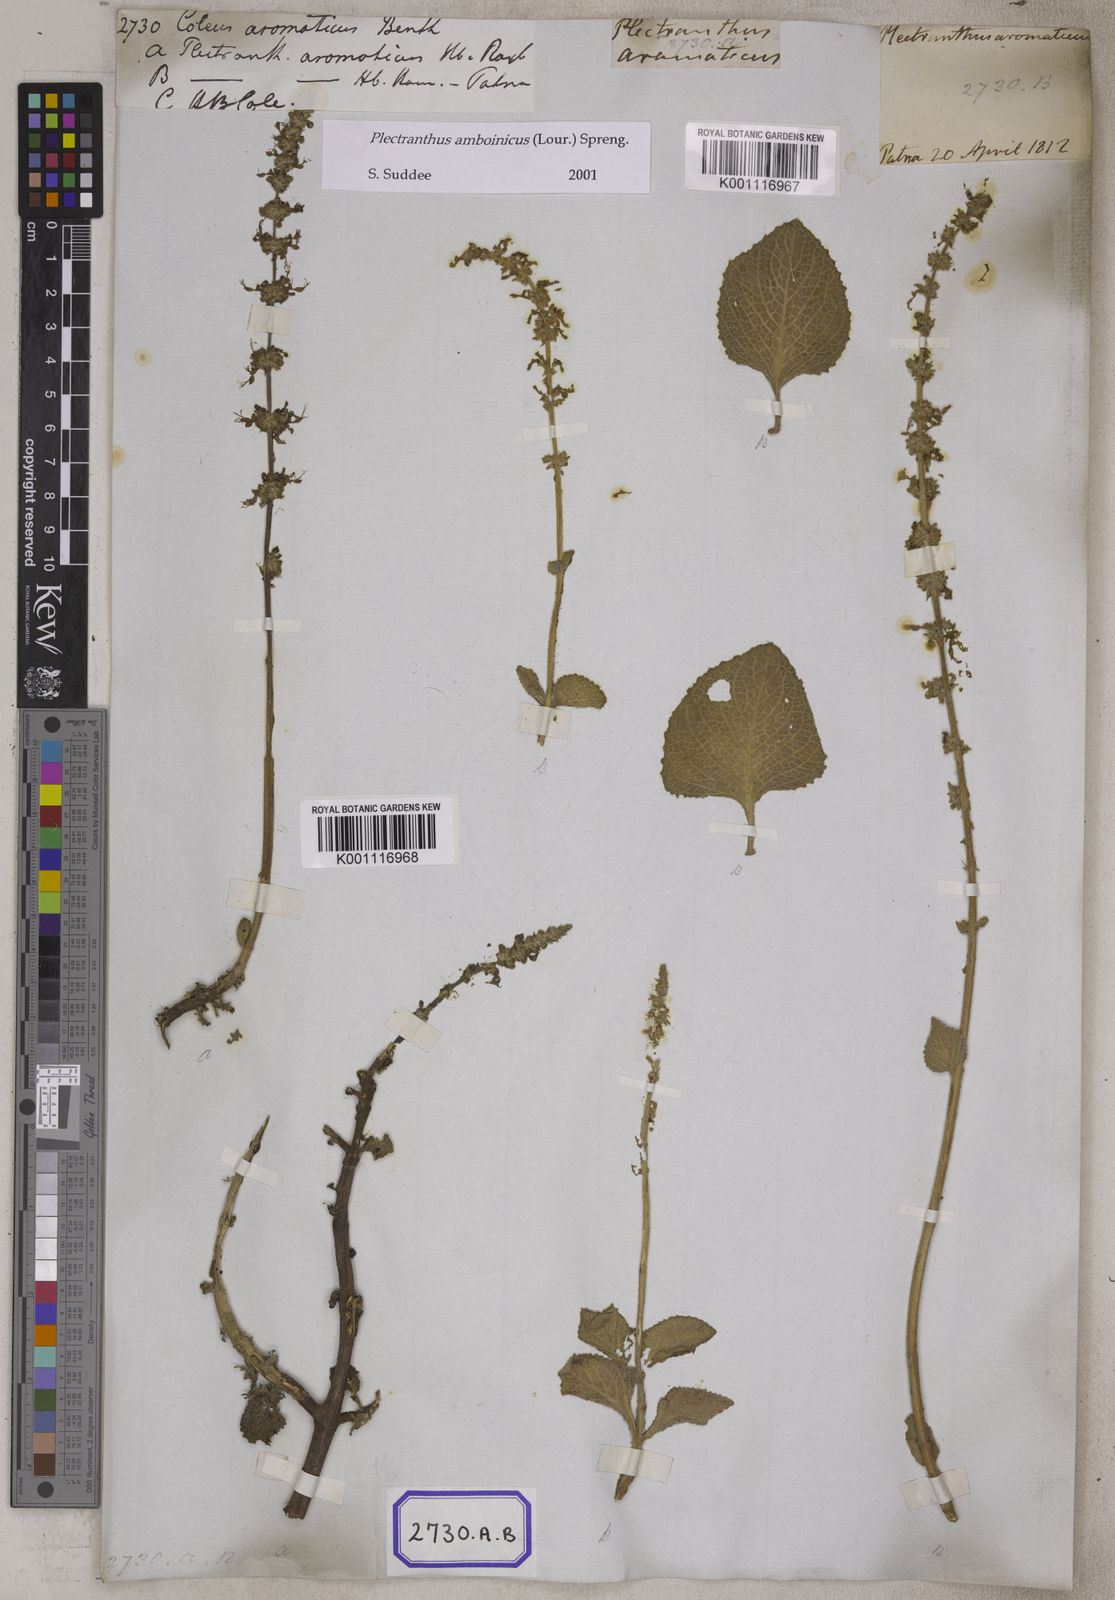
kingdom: Plantae
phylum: Tracheophyta
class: Magnoliopsida
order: Lamiales
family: Lamiaceae
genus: Coleus
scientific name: Coleus amboinicus
